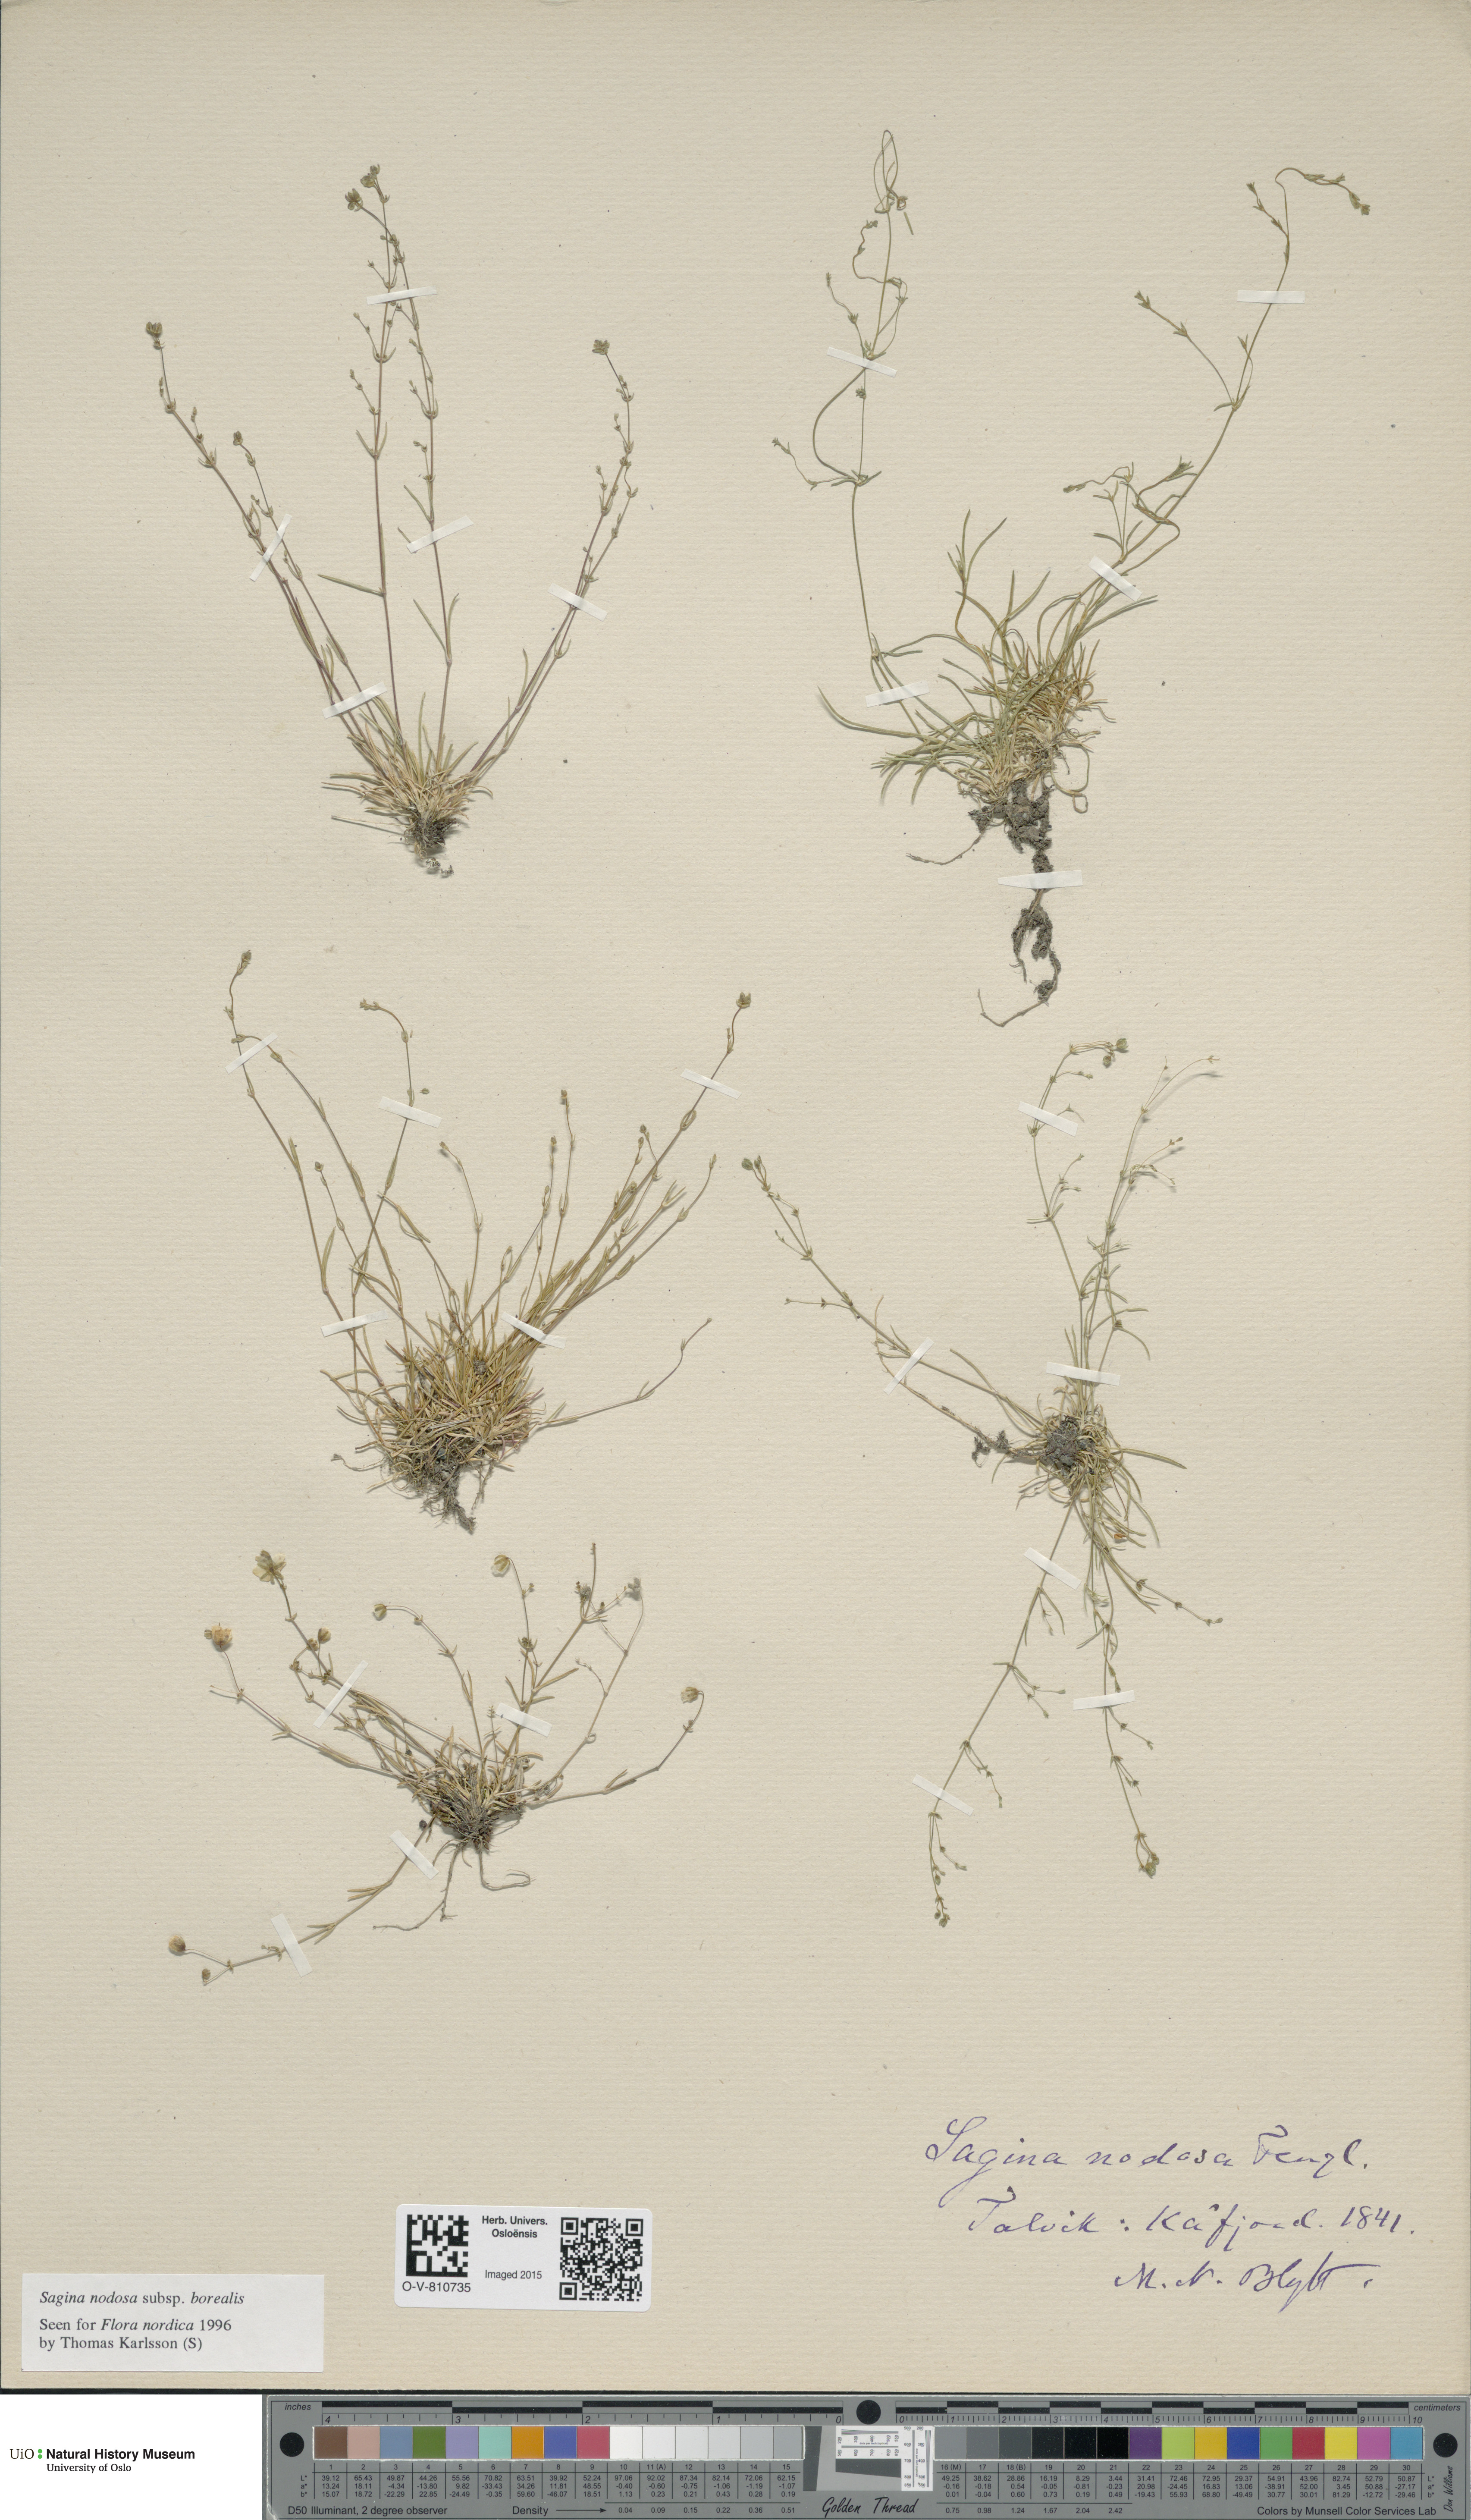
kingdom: Plantae
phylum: Tracheophyta
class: Magnoliopsida
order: Caryophyllales
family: Caryophyllaceae
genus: Sagina
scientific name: Sagina nodosa
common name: Knotted pearlwort
